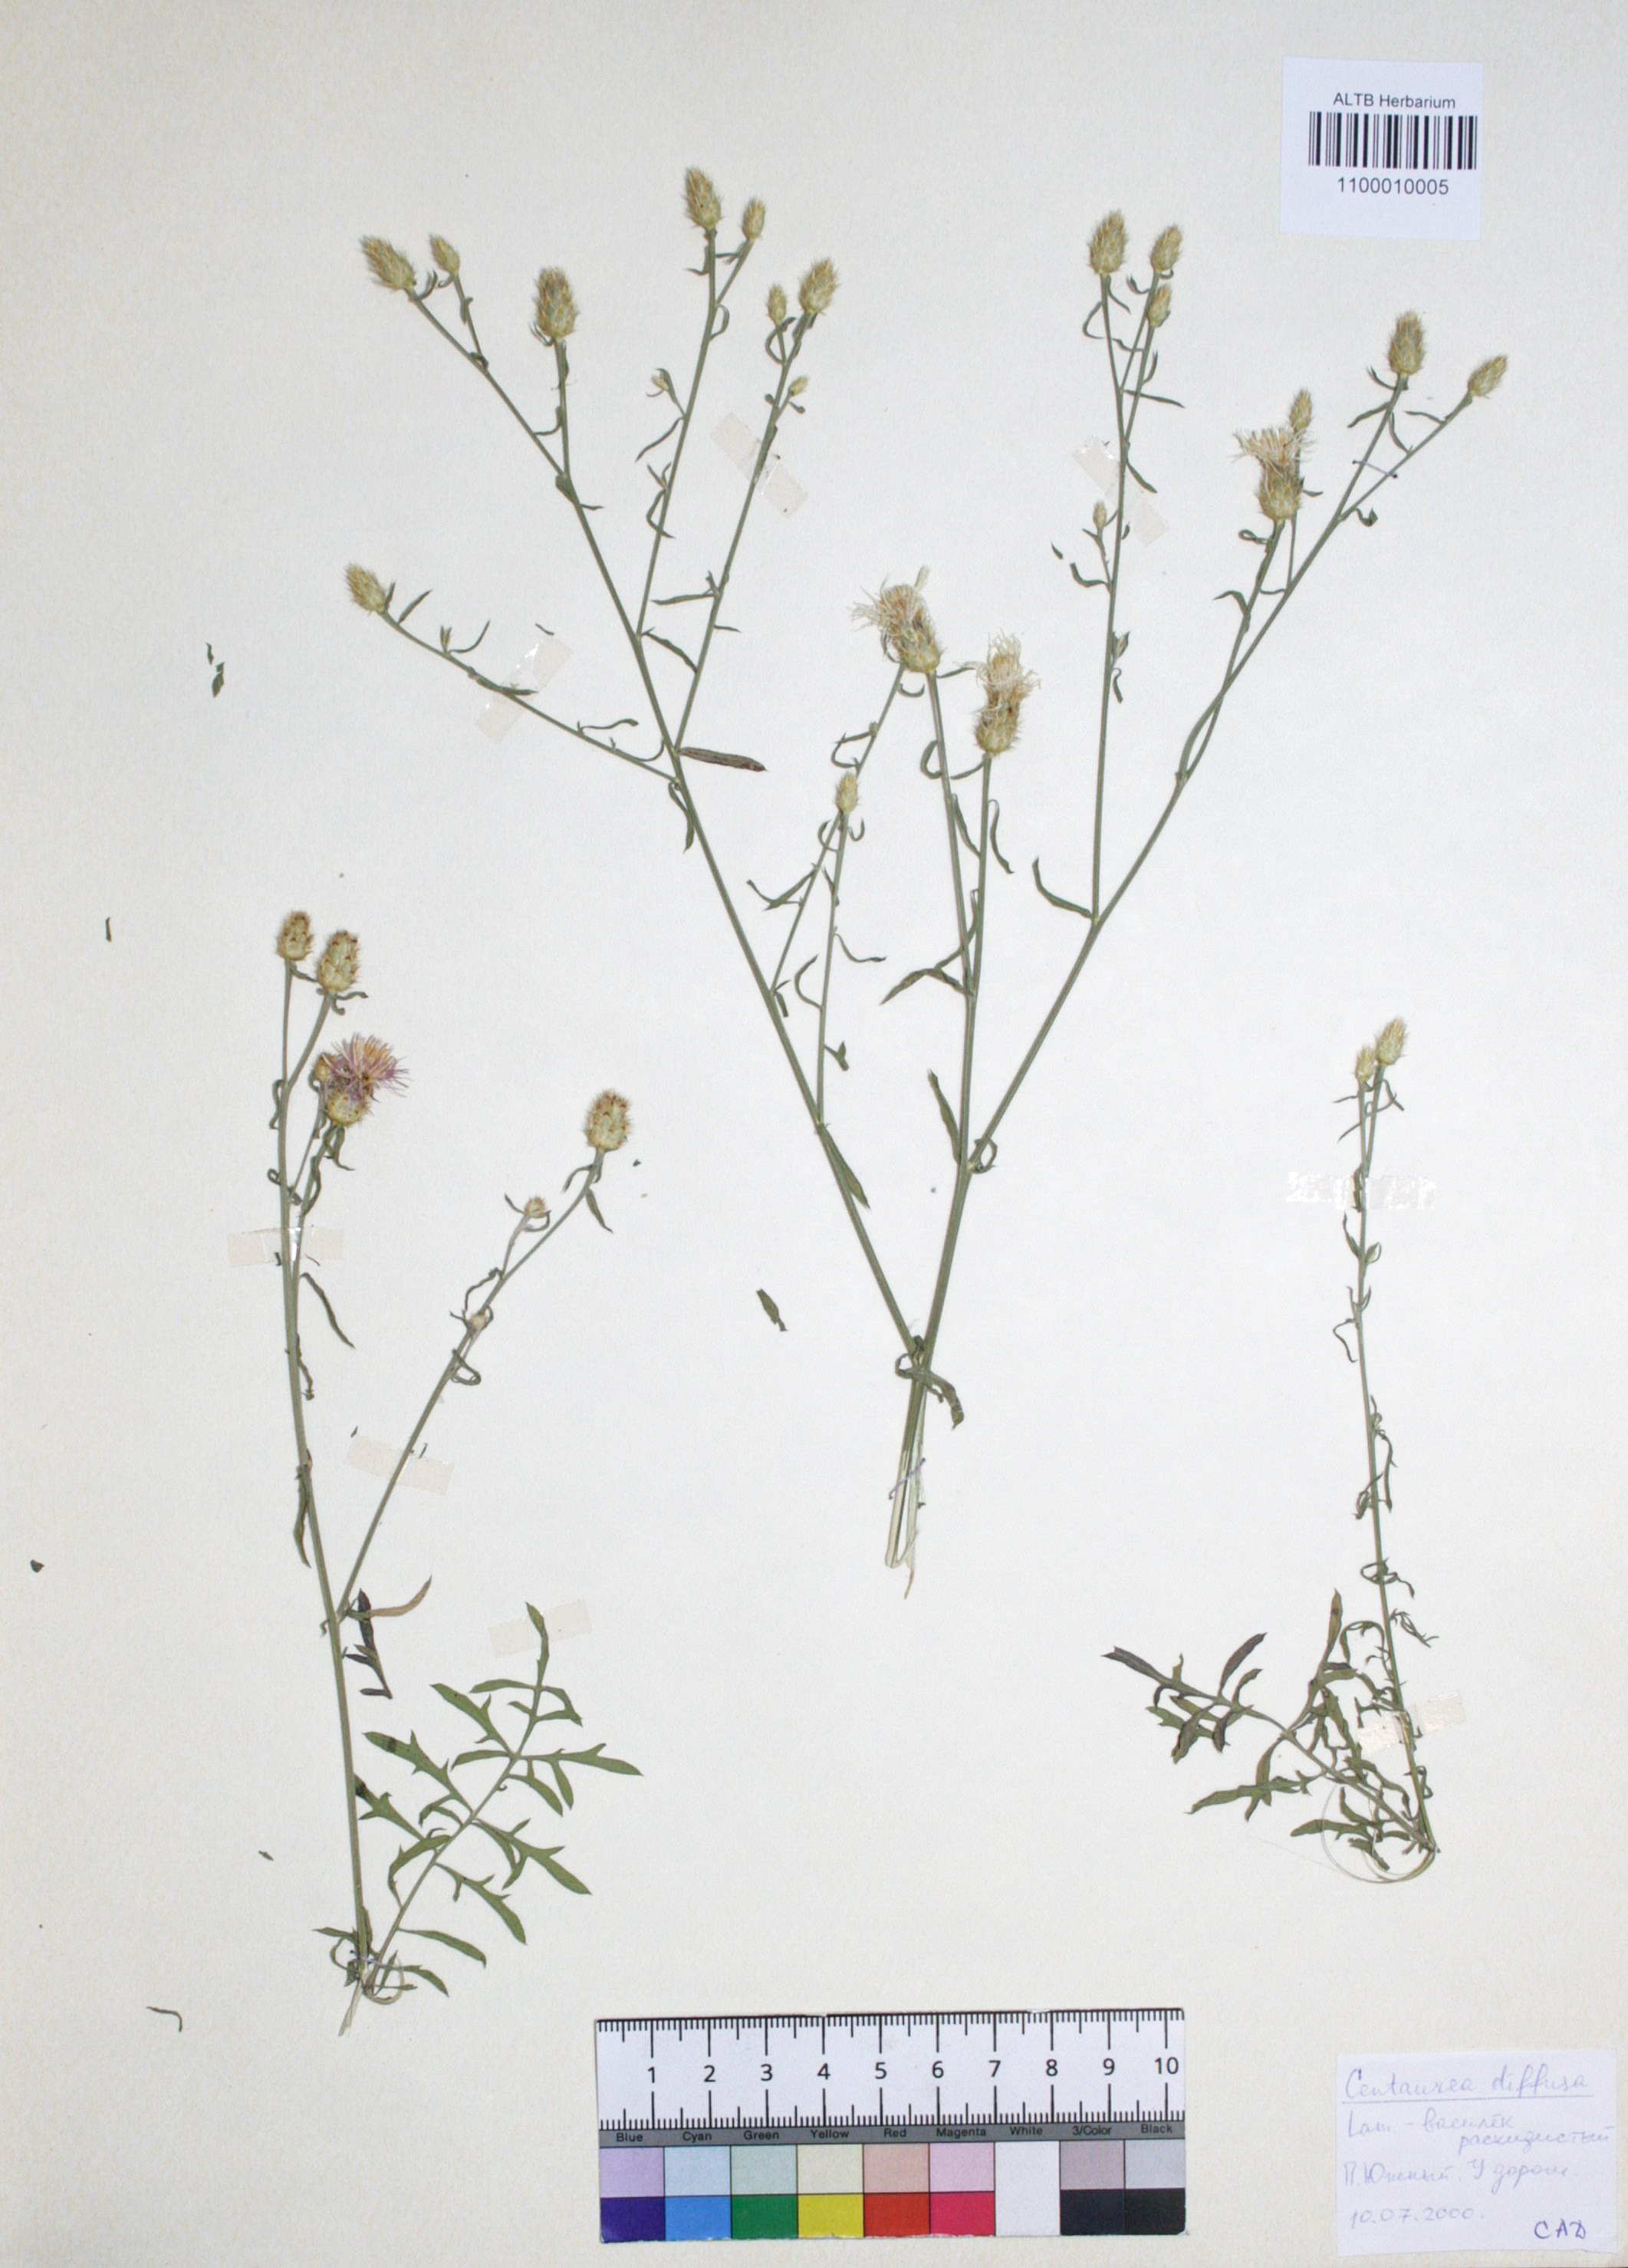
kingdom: Plantae
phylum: Tracheophyta
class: Magnoliopsida
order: Asterales
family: Asteraceae
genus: Centaurea
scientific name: Centaurea diffusa
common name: Diffuse knapweed
